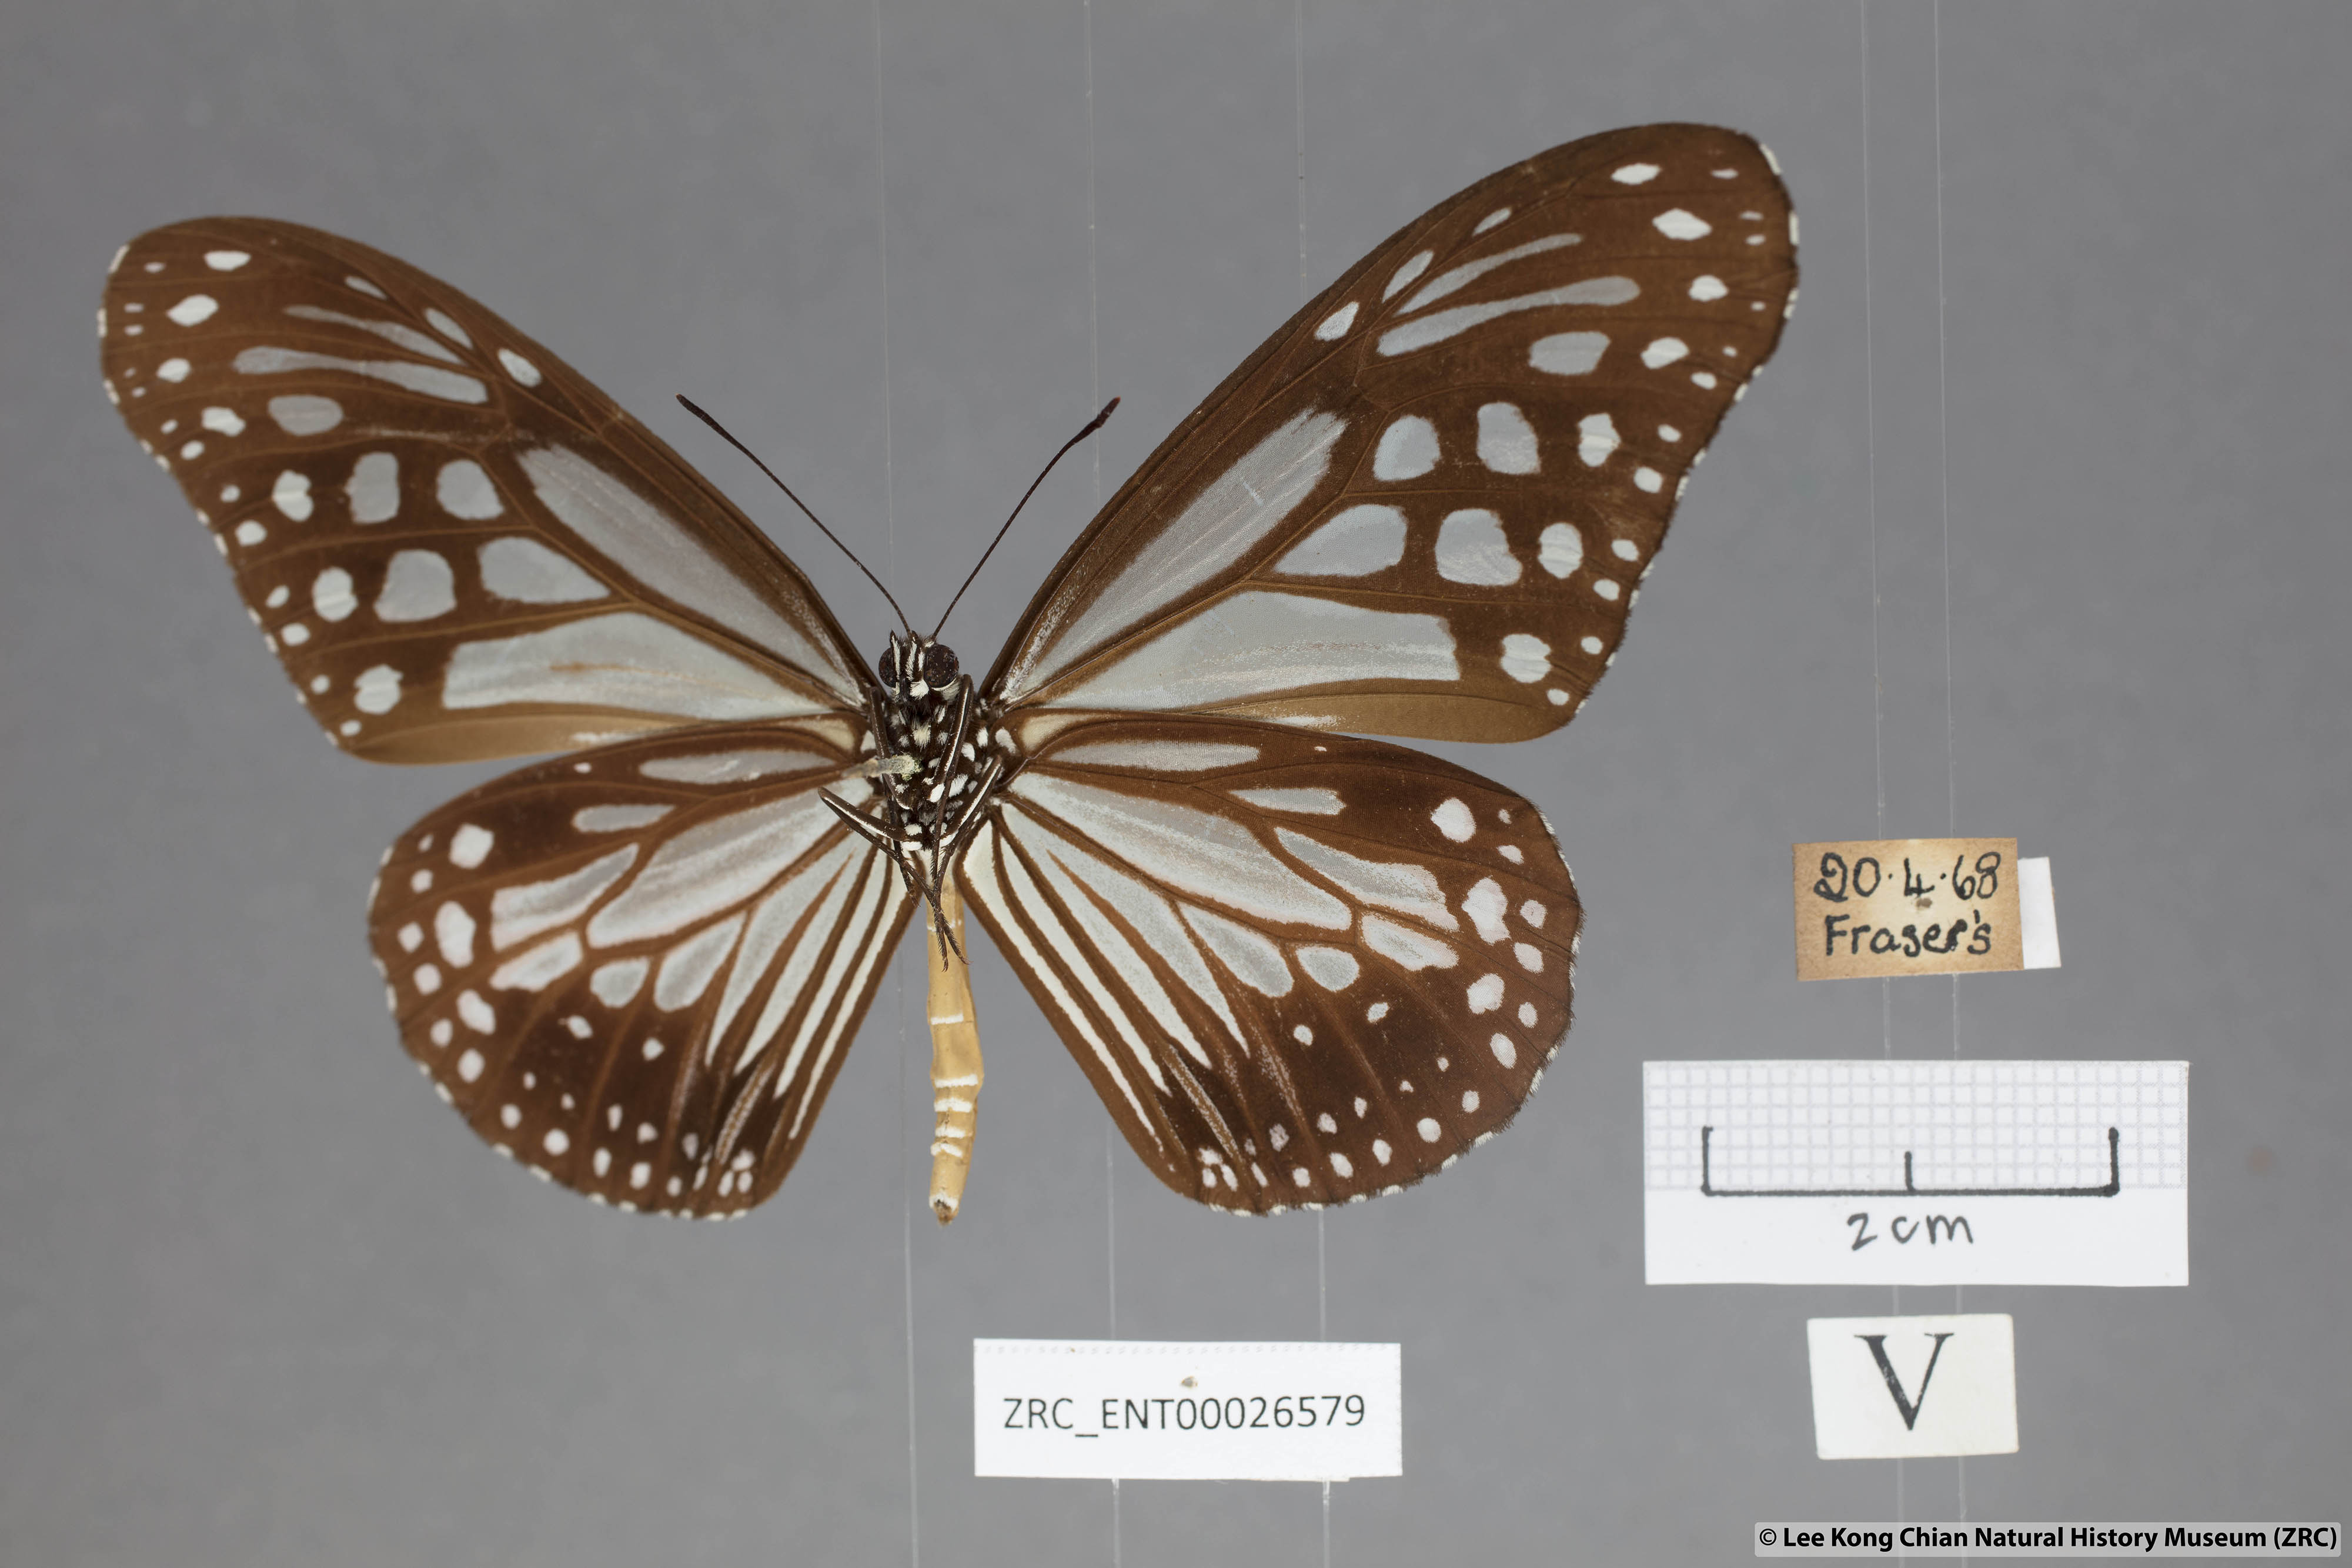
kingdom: Animalia
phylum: Arthropoda
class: Insecta
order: Lepidoptera
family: Nymphalidae
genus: Parantica
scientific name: Parantica melaneus
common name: Chocolate tiger
